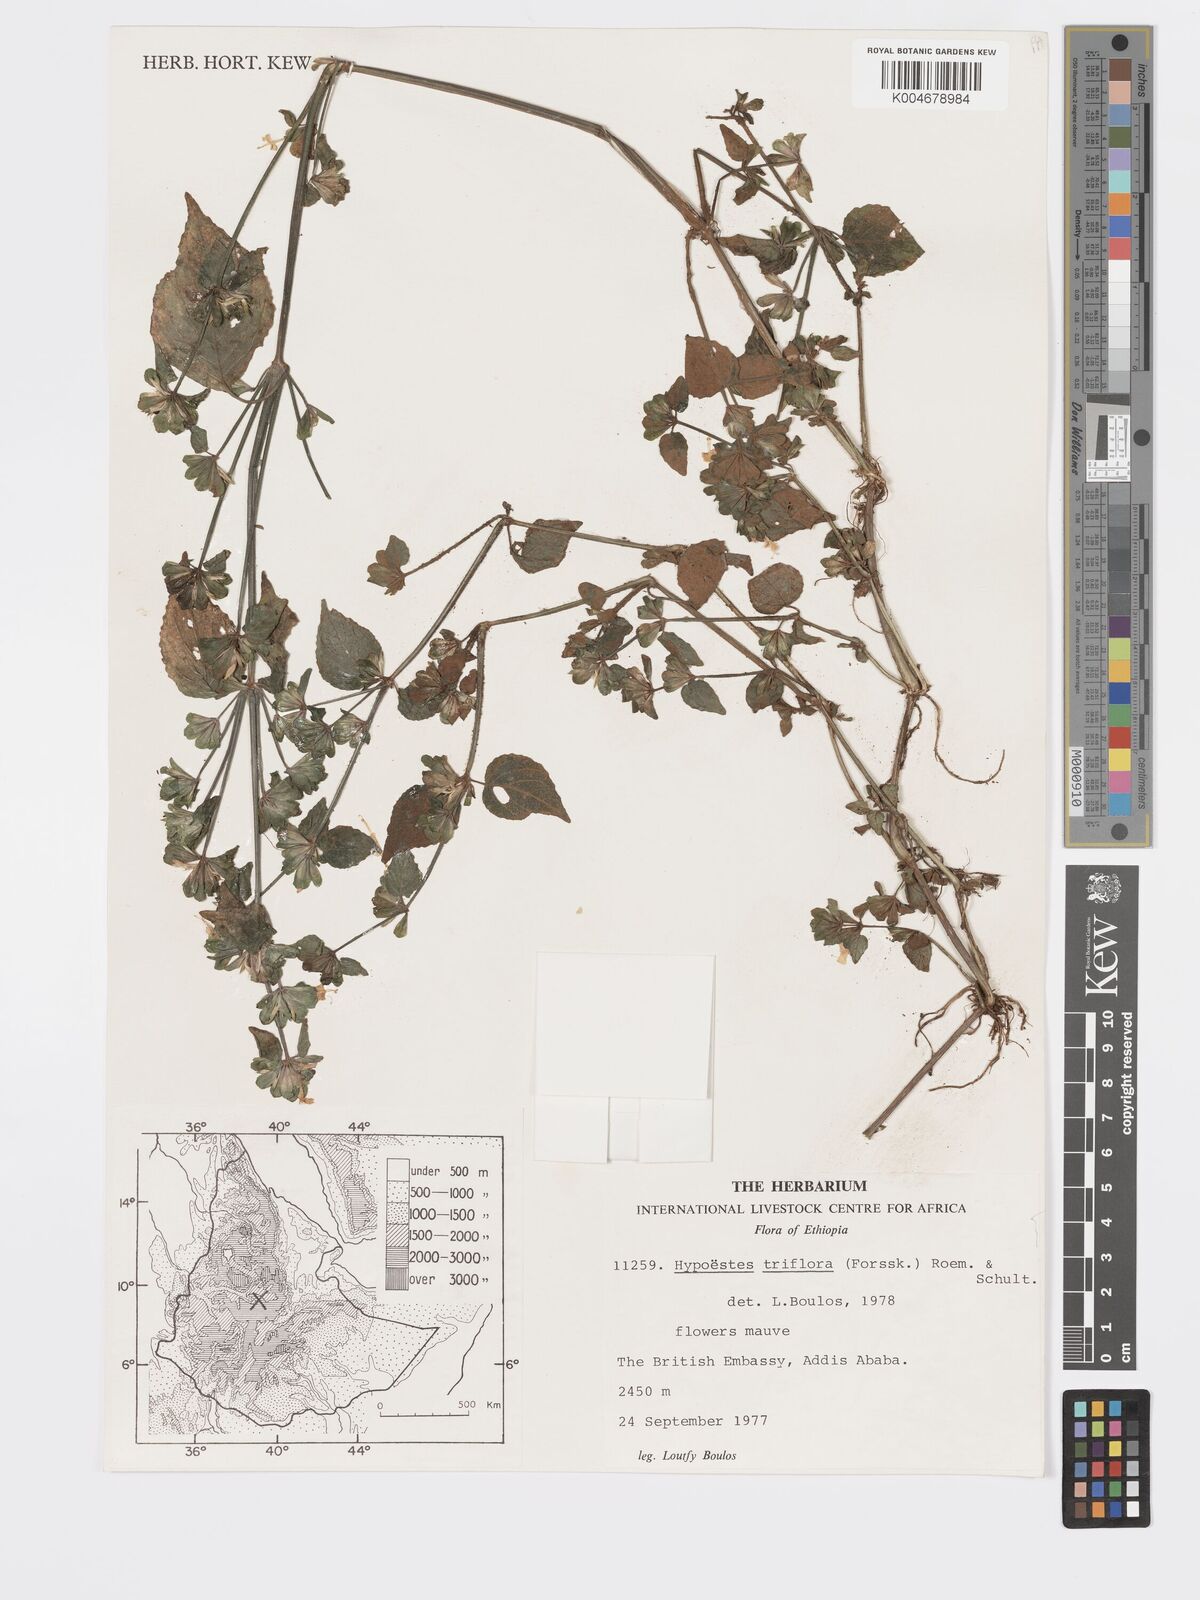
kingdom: Plantae
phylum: Tracheophyta
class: Magnoliopsida
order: Lamiales
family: Acanthaceae
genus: Hypoestes
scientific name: Hypoestes triflora
